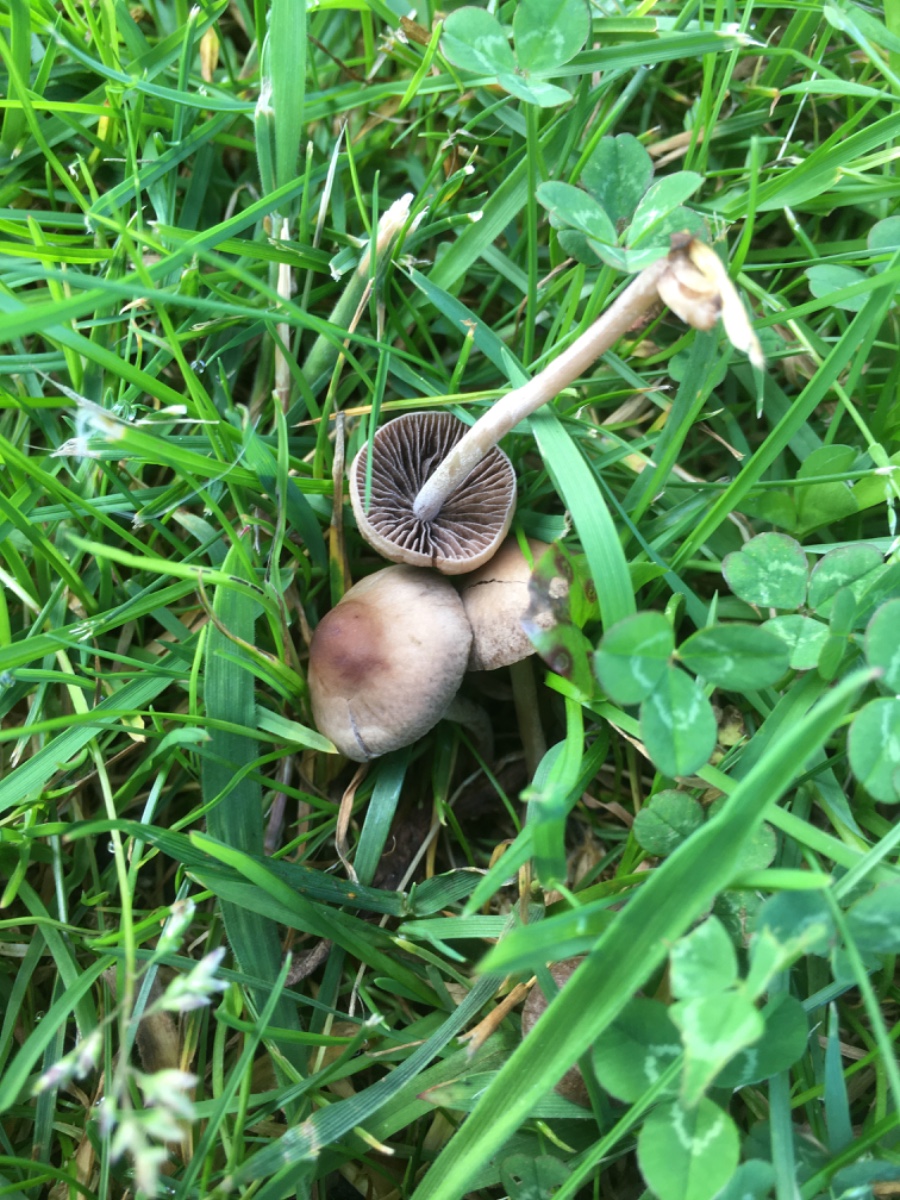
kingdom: Fungi
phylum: Basidiomycota
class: Agaricomycetes
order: Agaricales
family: Bolbitiaceae
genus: Panaeolina
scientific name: Panaeolina foenisecii
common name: høslætsvamp
